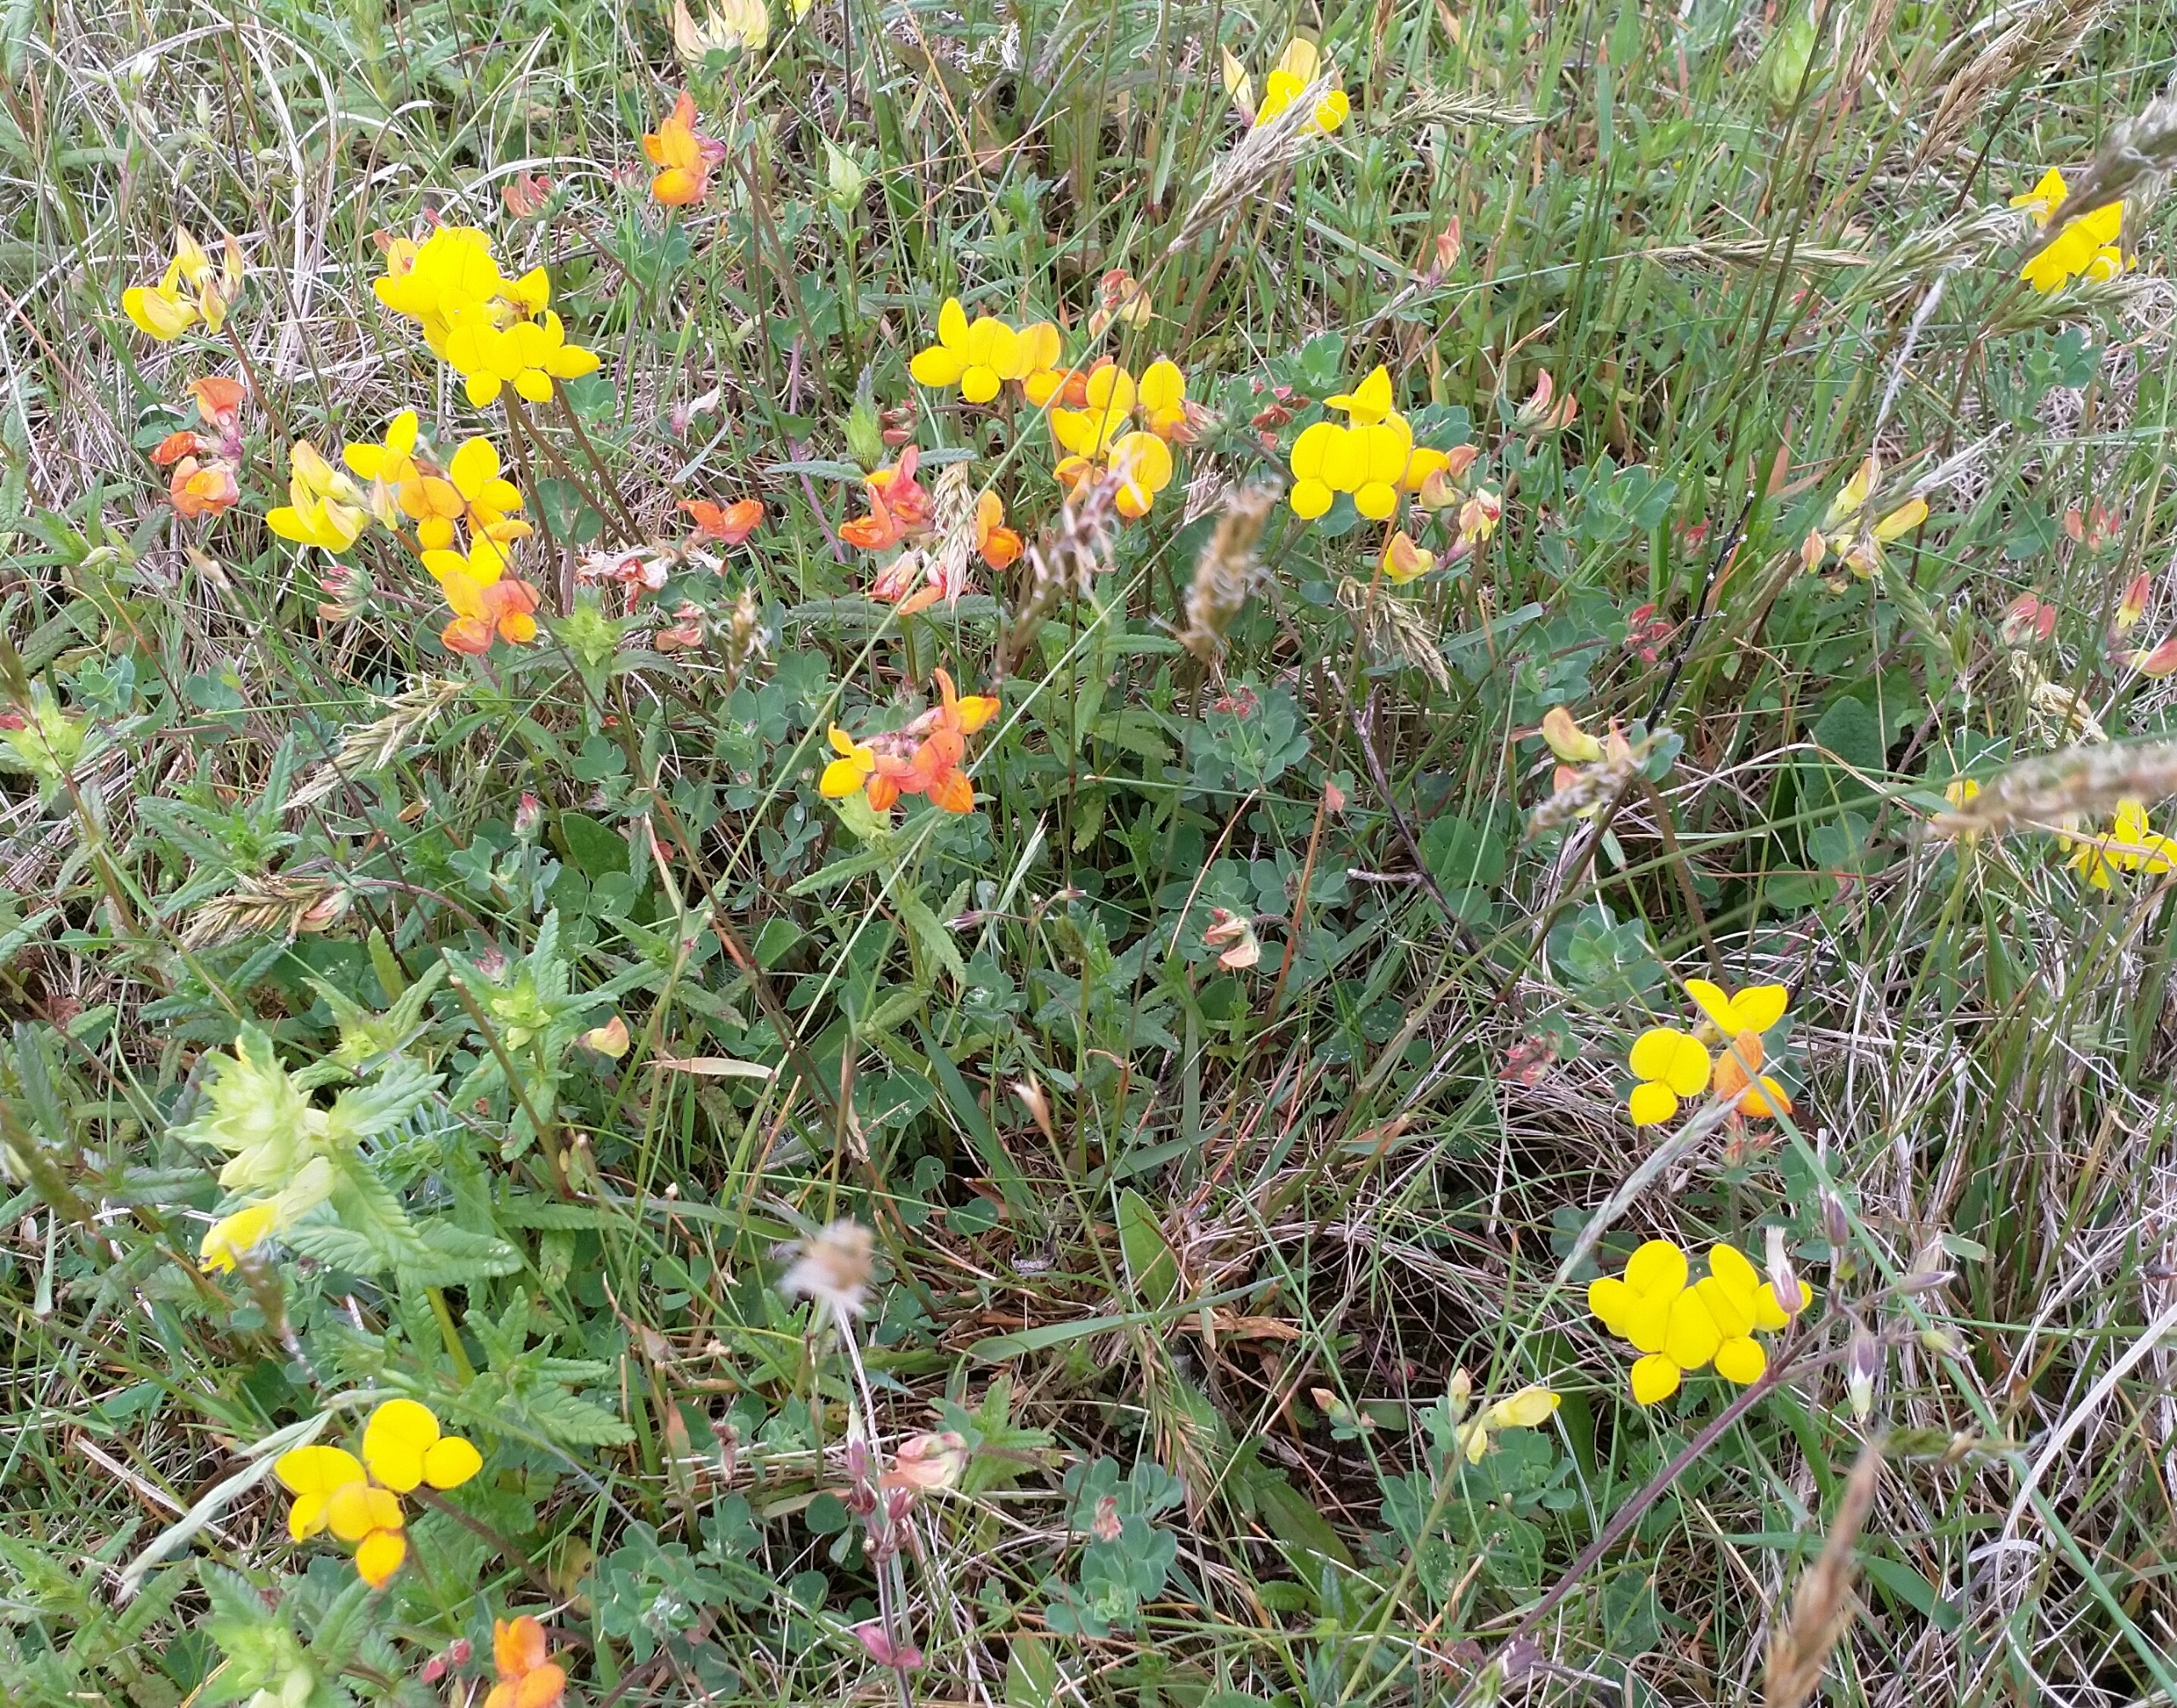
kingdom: Plantae
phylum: Tracheophyta
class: Magnoliopsida
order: Fabales
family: Fabaceae
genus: Lotus
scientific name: Lotus corniculatus
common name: Almindelig kællingetand
